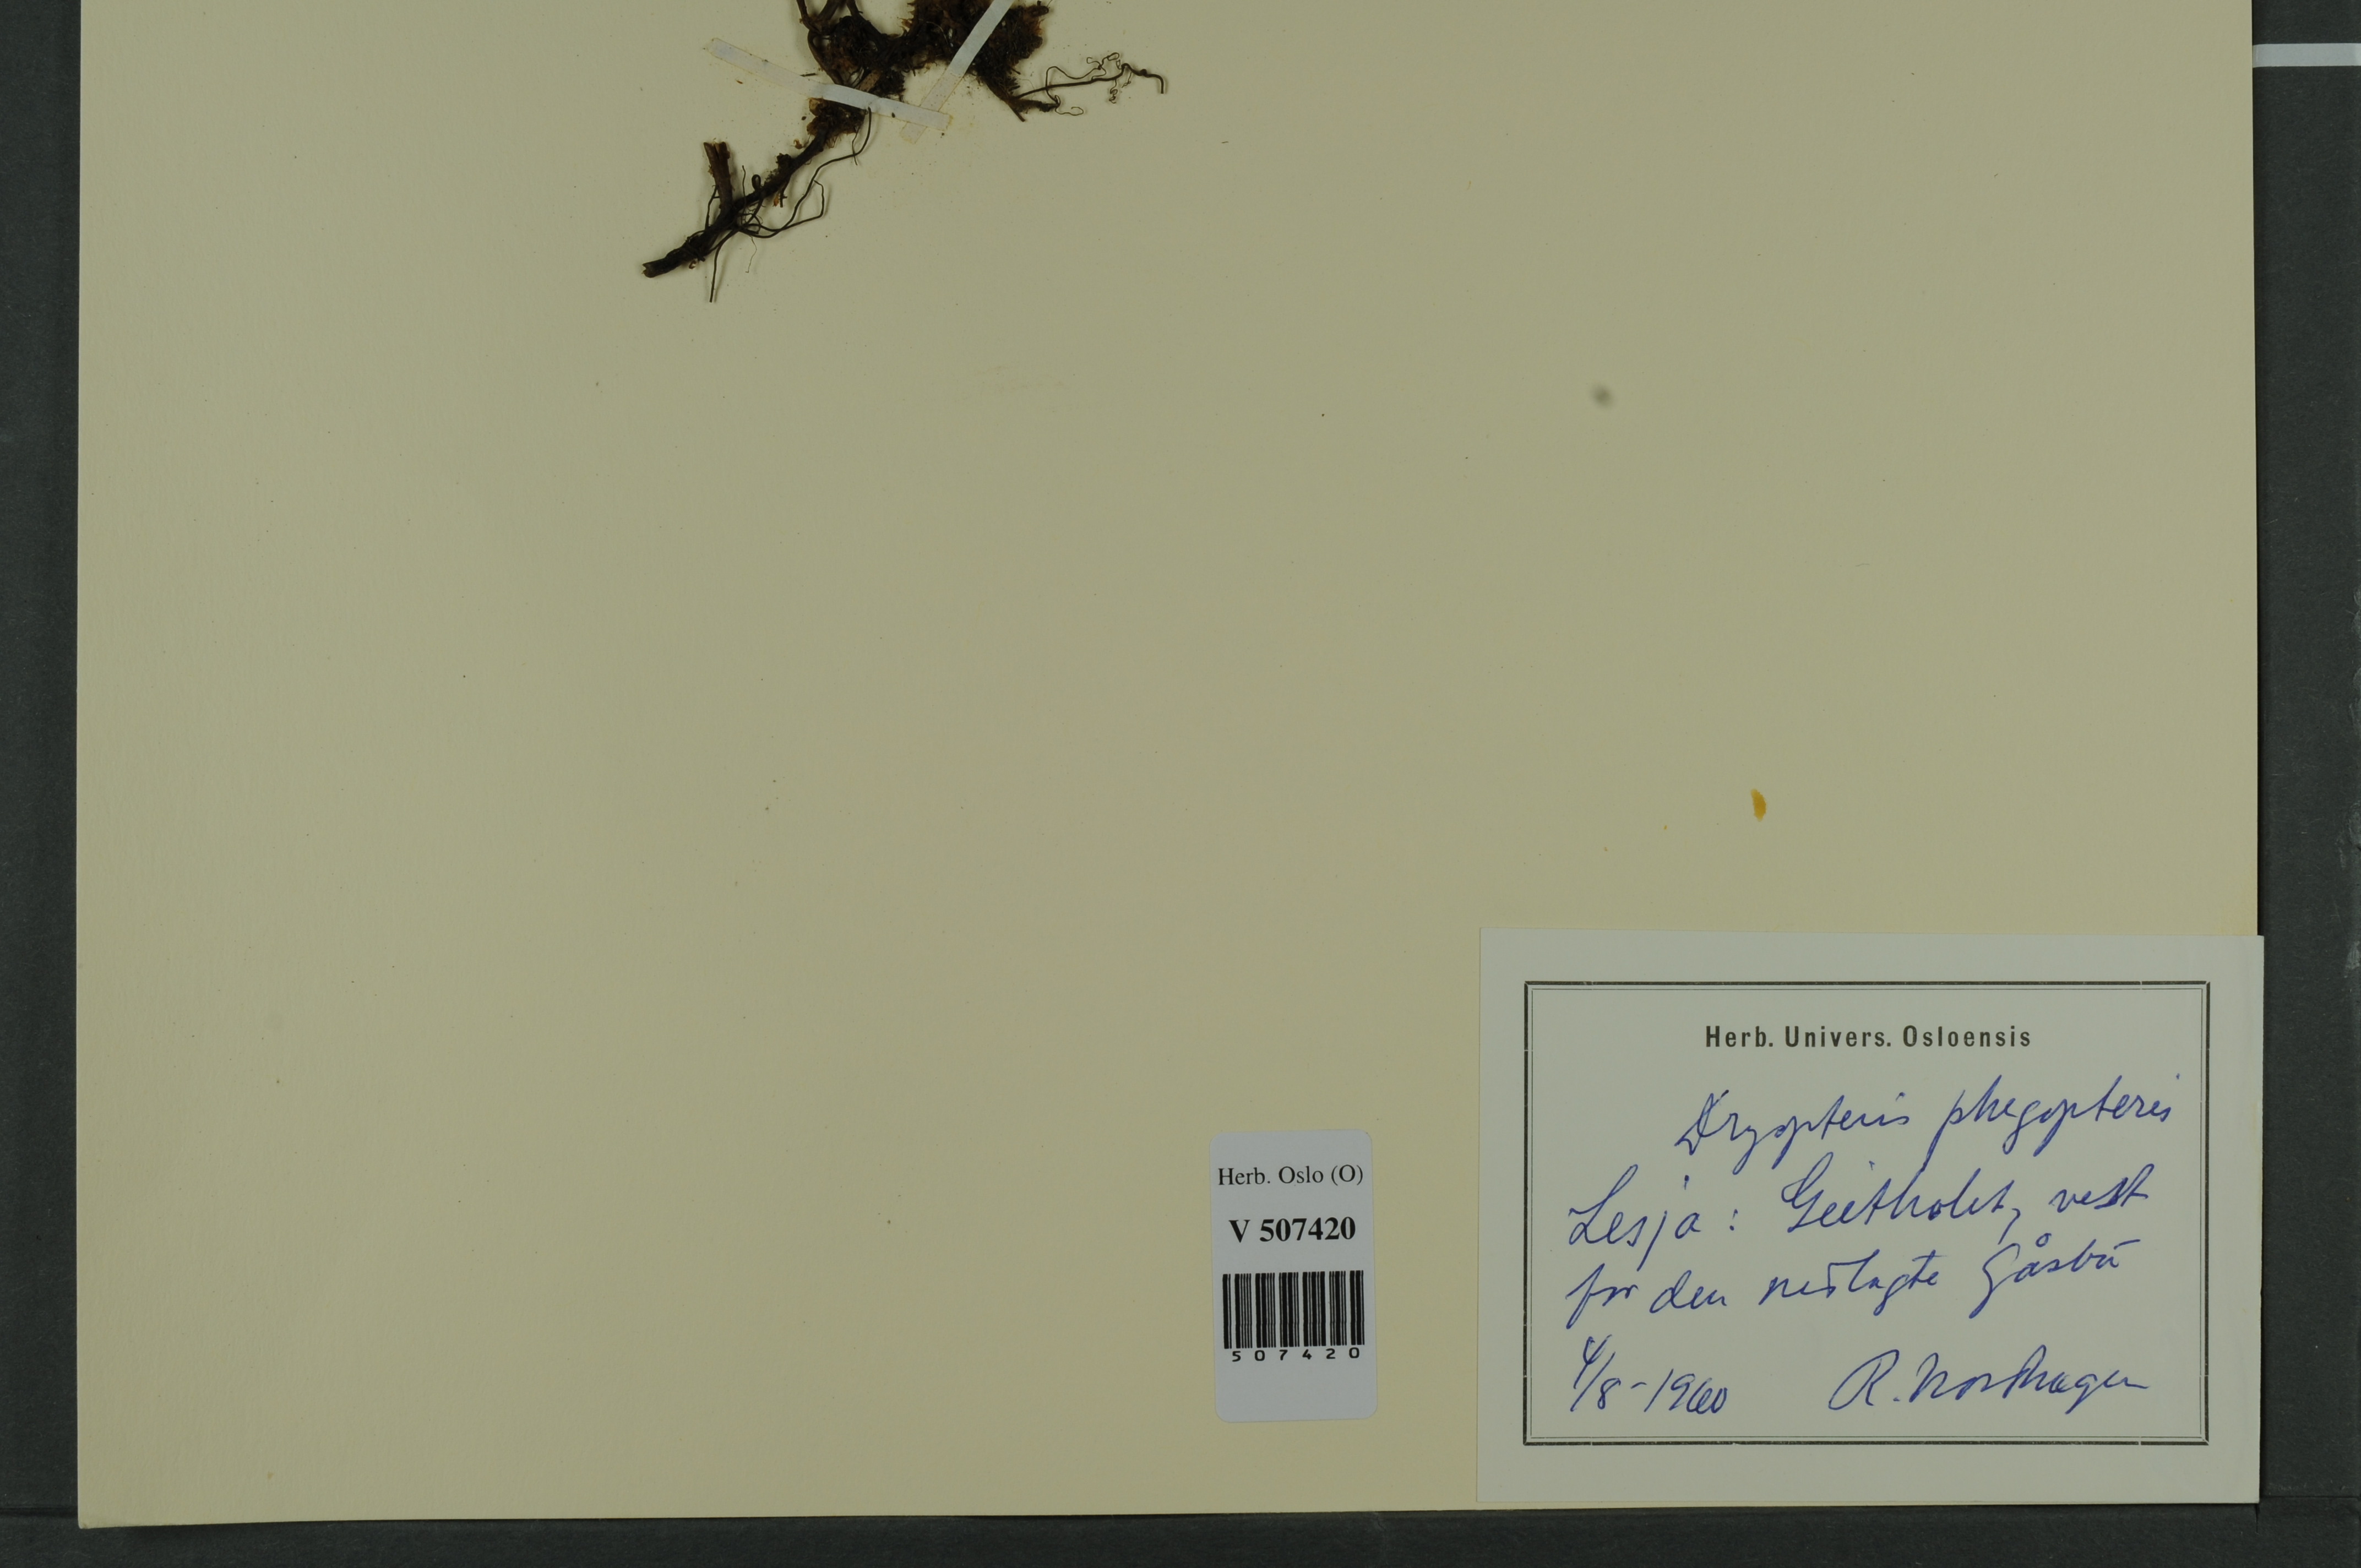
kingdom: Plantae
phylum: Tracheophyta
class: Polypodiopsida
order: Polypodiales
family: Thelypteridaceae
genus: Phegopteris
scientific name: Phegopteris connectilis
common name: Beech fern
